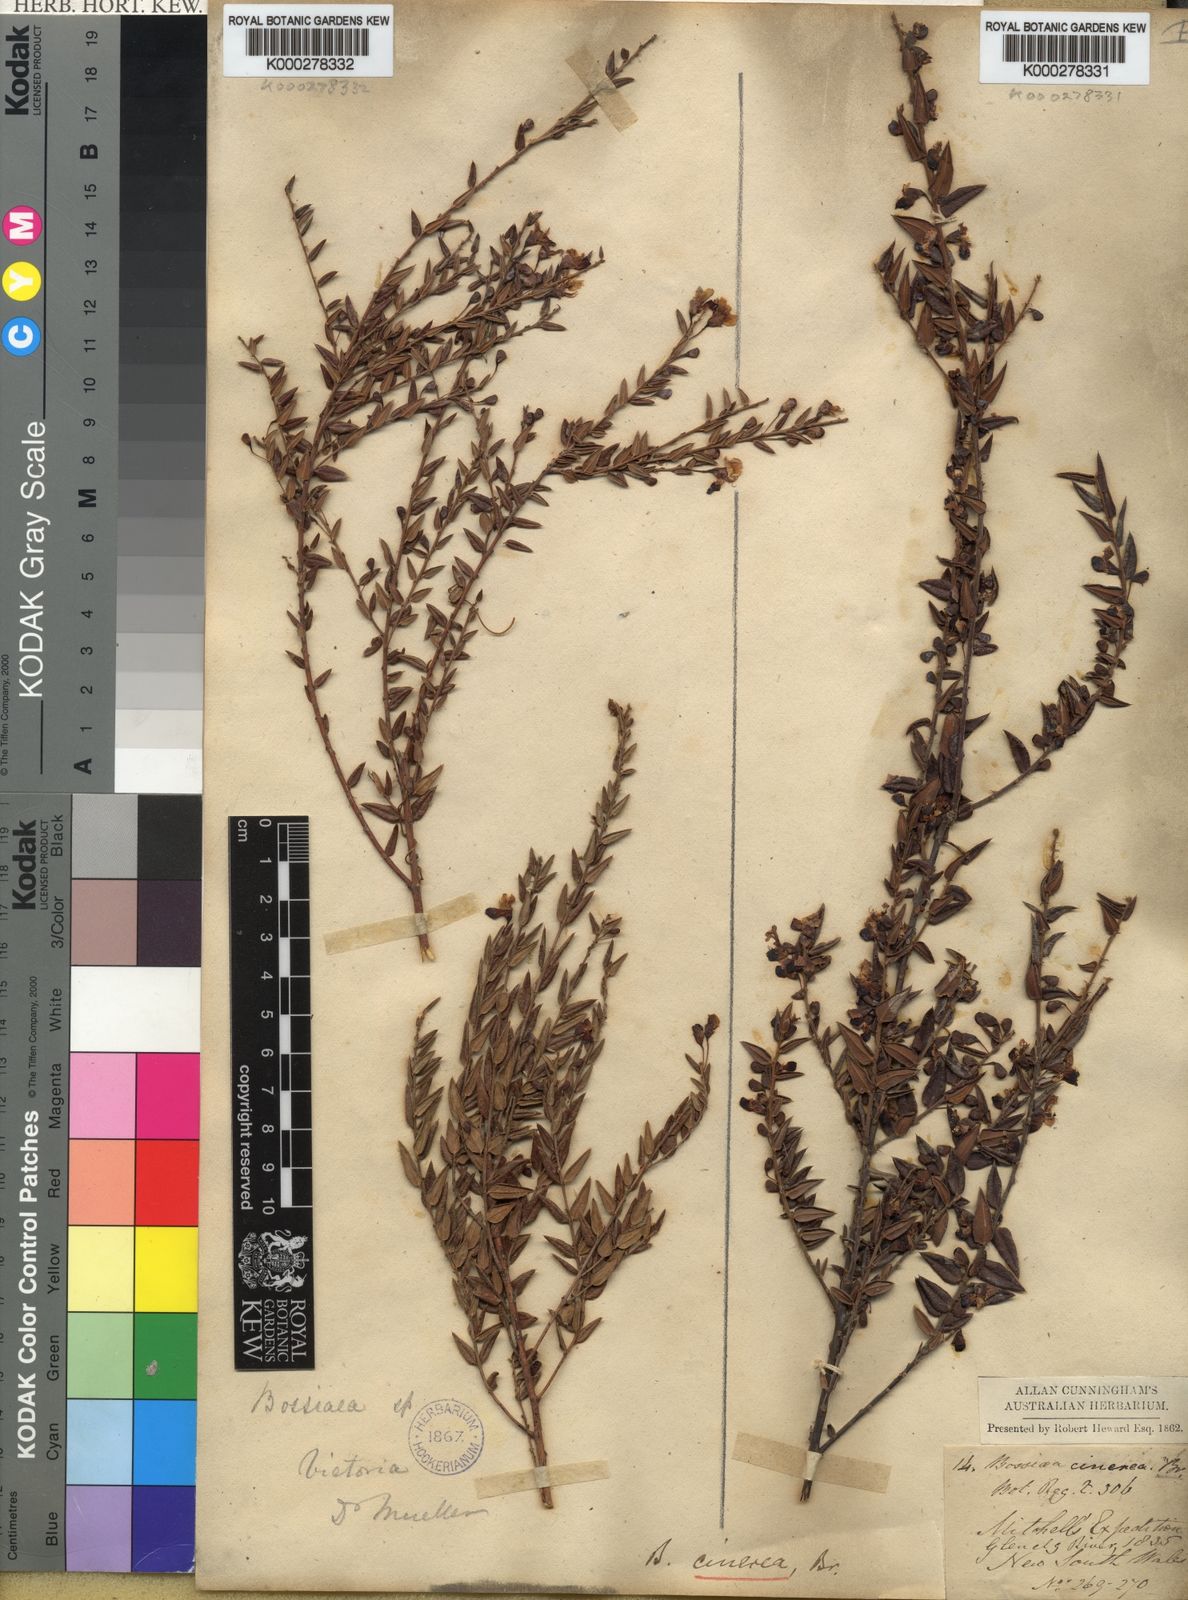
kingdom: Plantae
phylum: Tracheophyta
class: Magnoliopsida
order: Fabales
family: Fabaceae
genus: Bossiaea
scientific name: Bossiaea cinerea
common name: Showy bossiaea
